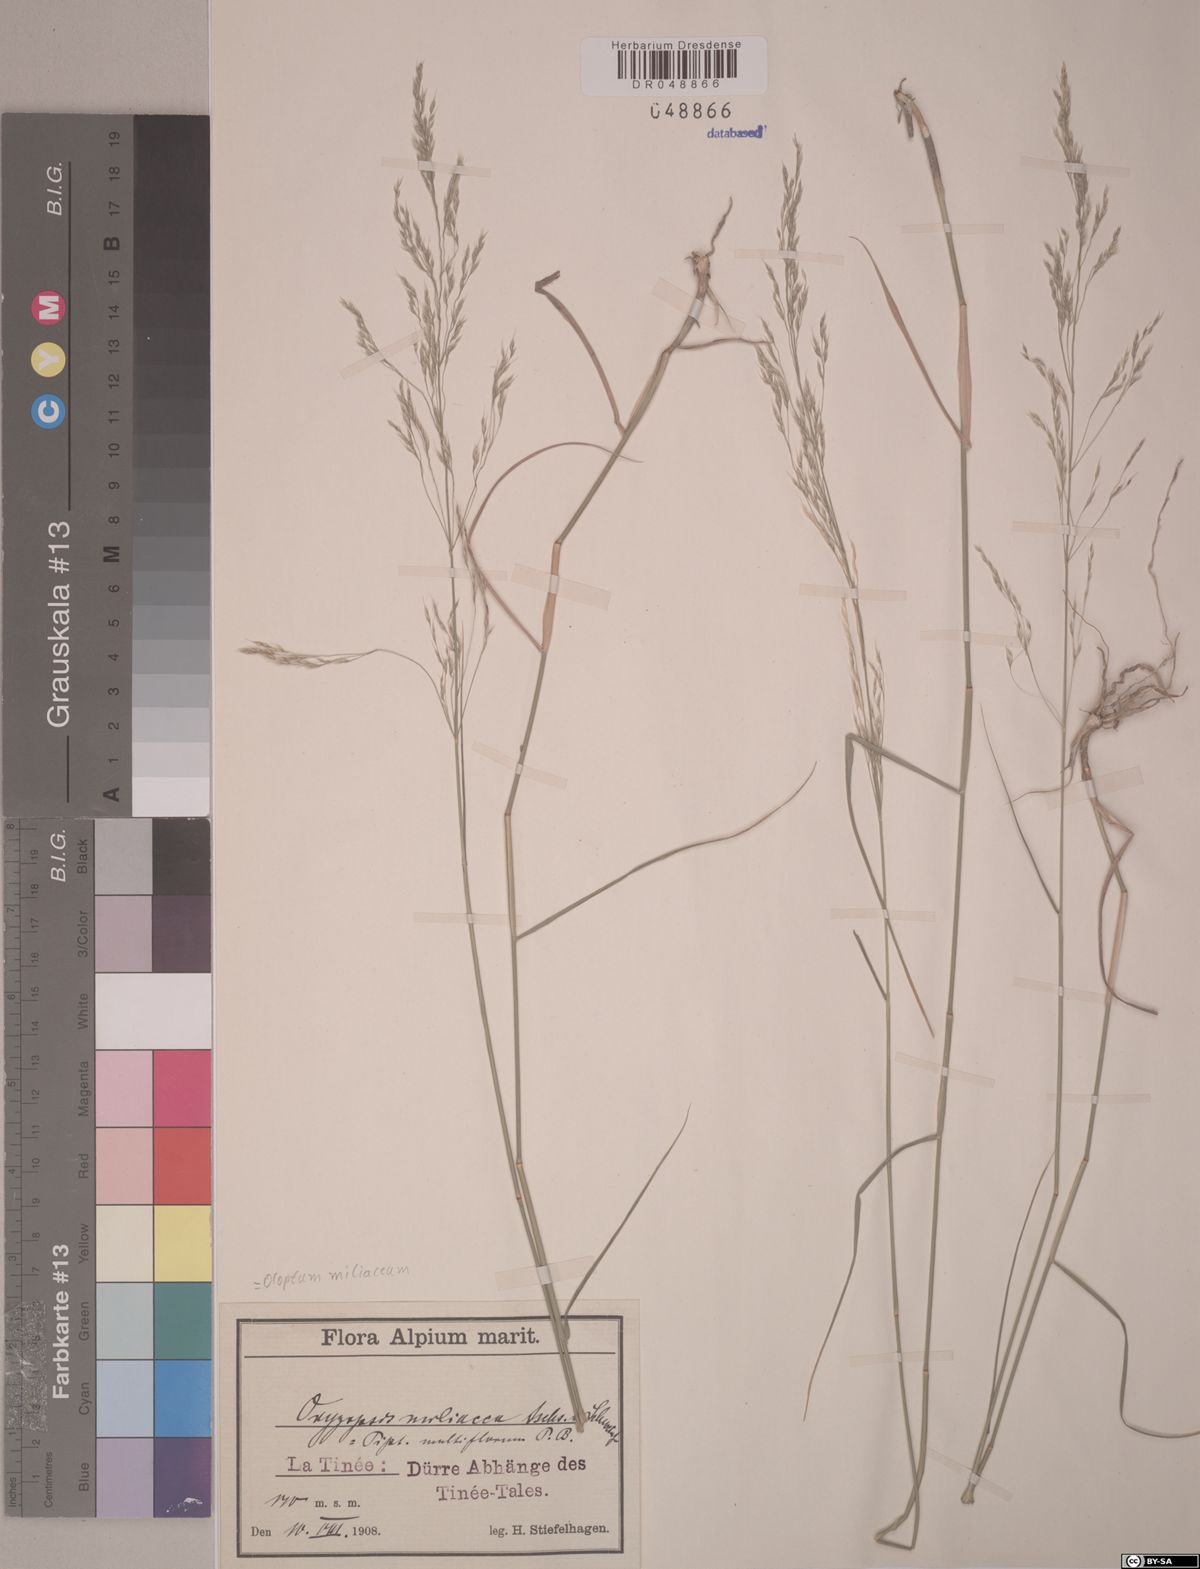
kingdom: Plantae
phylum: Tracheophyta
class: Liliopsida
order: Poales
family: Poaceae
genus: Oloptum
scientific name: Oloptum miliaceum
